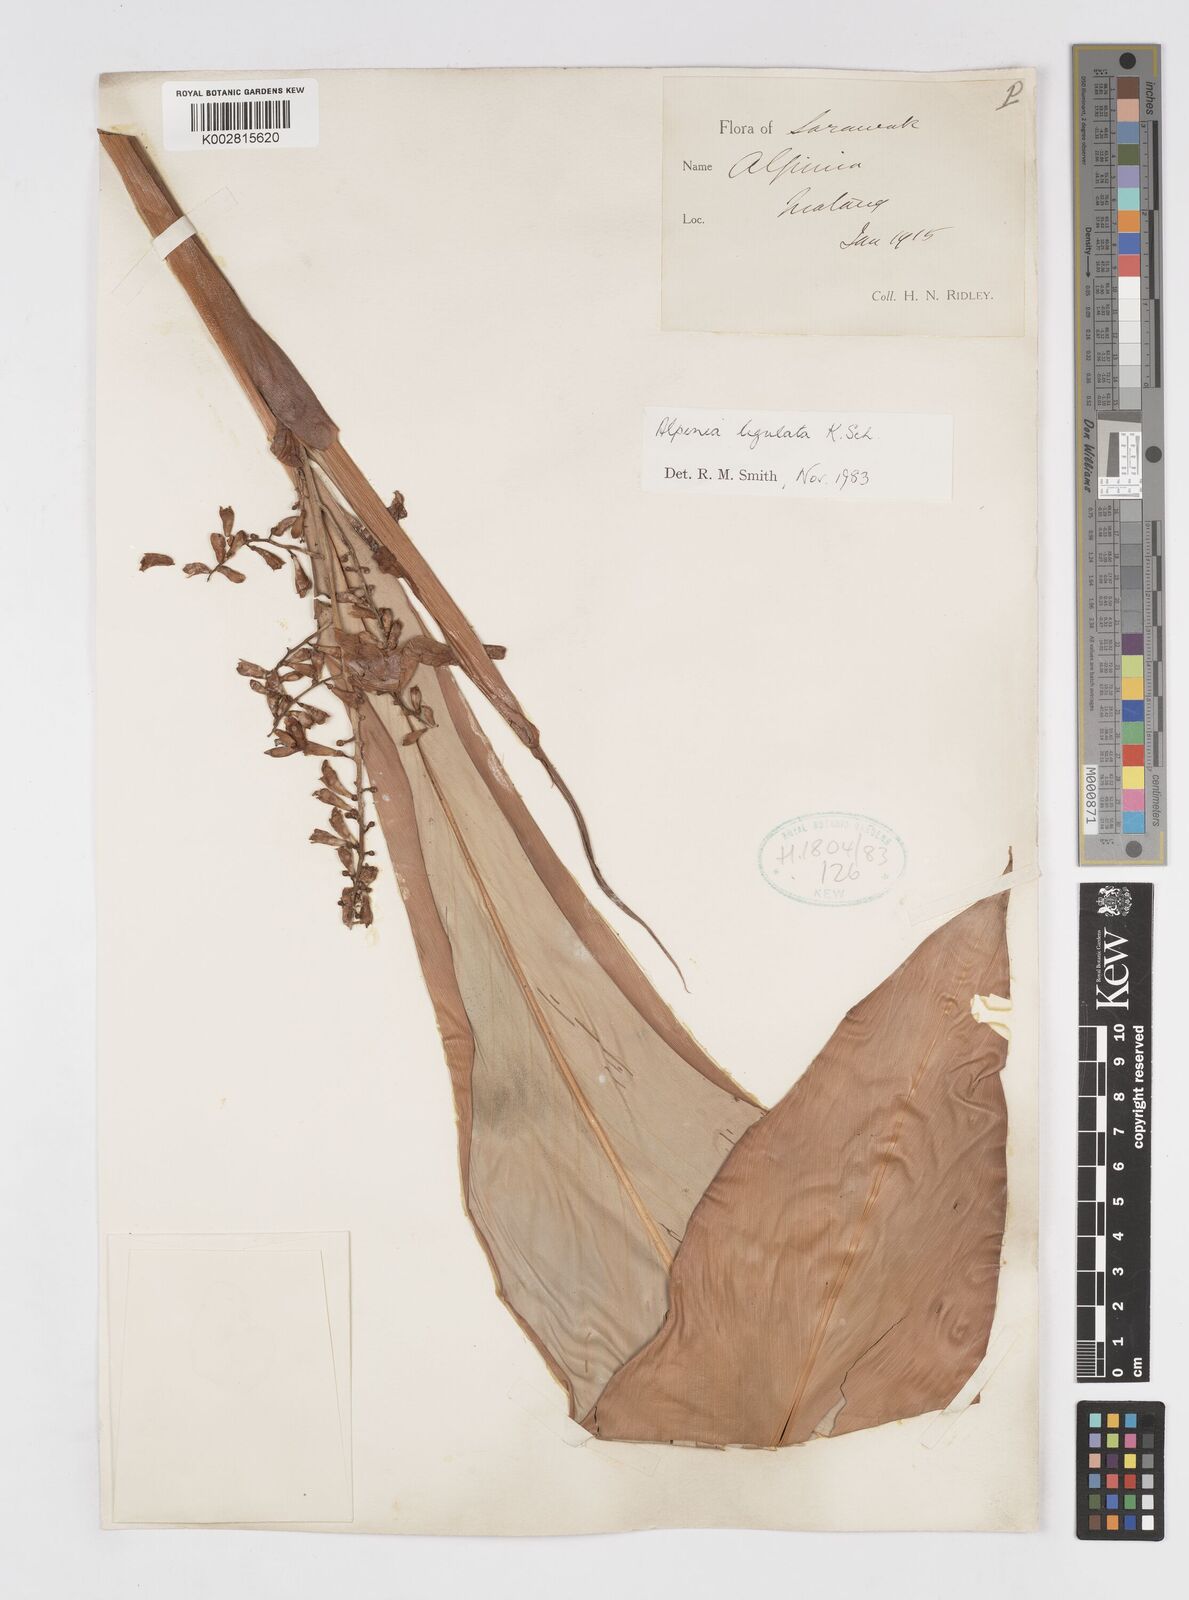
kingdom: Plantae
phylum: Tracheophyta
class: Liliopsida
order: Zingiberales
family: Zingiberaceae
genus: Alpinia
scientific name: Alpinia ligulata
